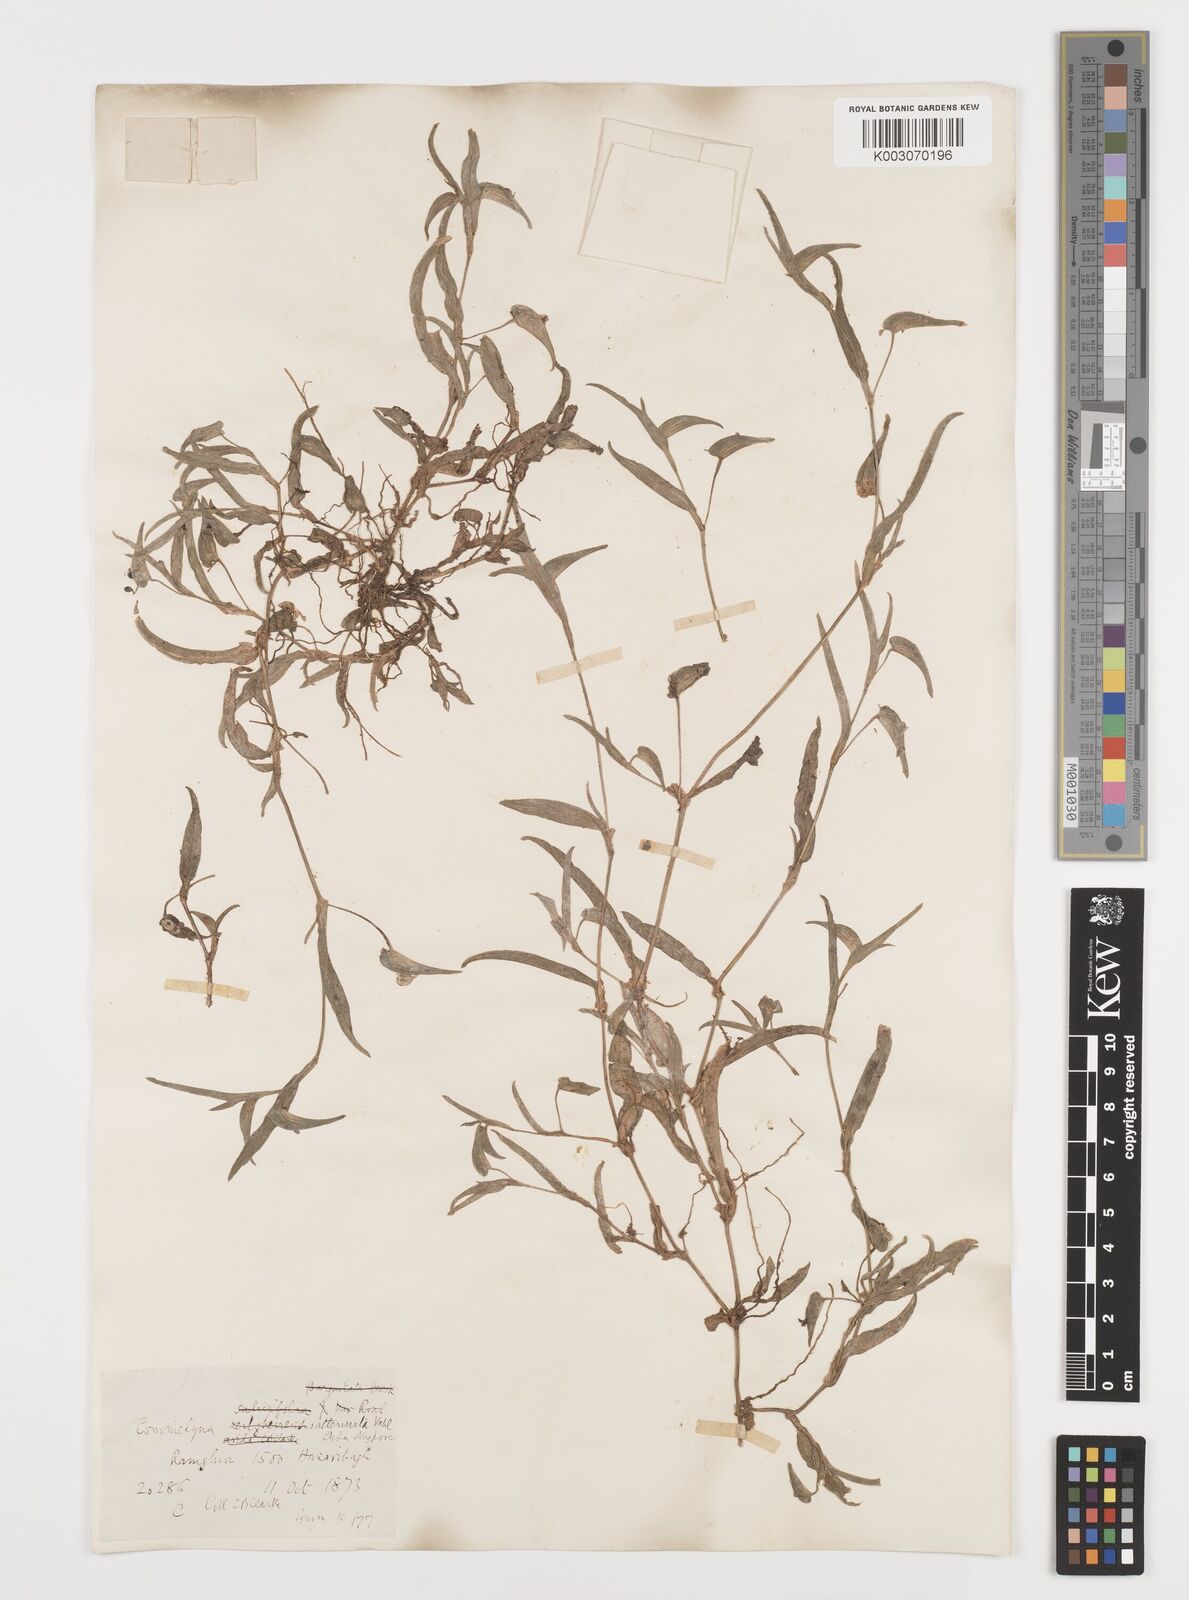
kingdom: Plantae
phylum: Tracheophyta
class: Liliopsida
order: Commelinales
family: Commelinaceae
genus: Commelina
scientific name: Commelina attenuata
